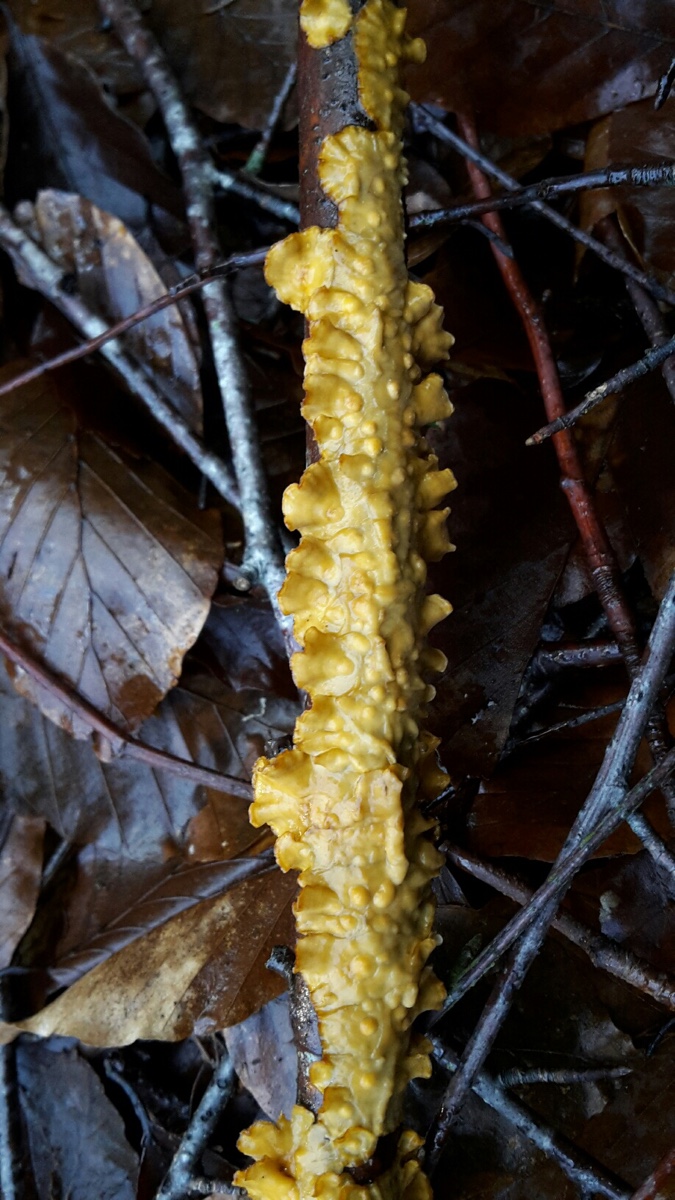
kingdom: Fungi
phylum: Basidiomycota
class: Agaricomycetes
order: Russulales
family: Stereaceae
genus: Stereum
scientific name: Stereum hirsutum
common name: håret lædersvamp
